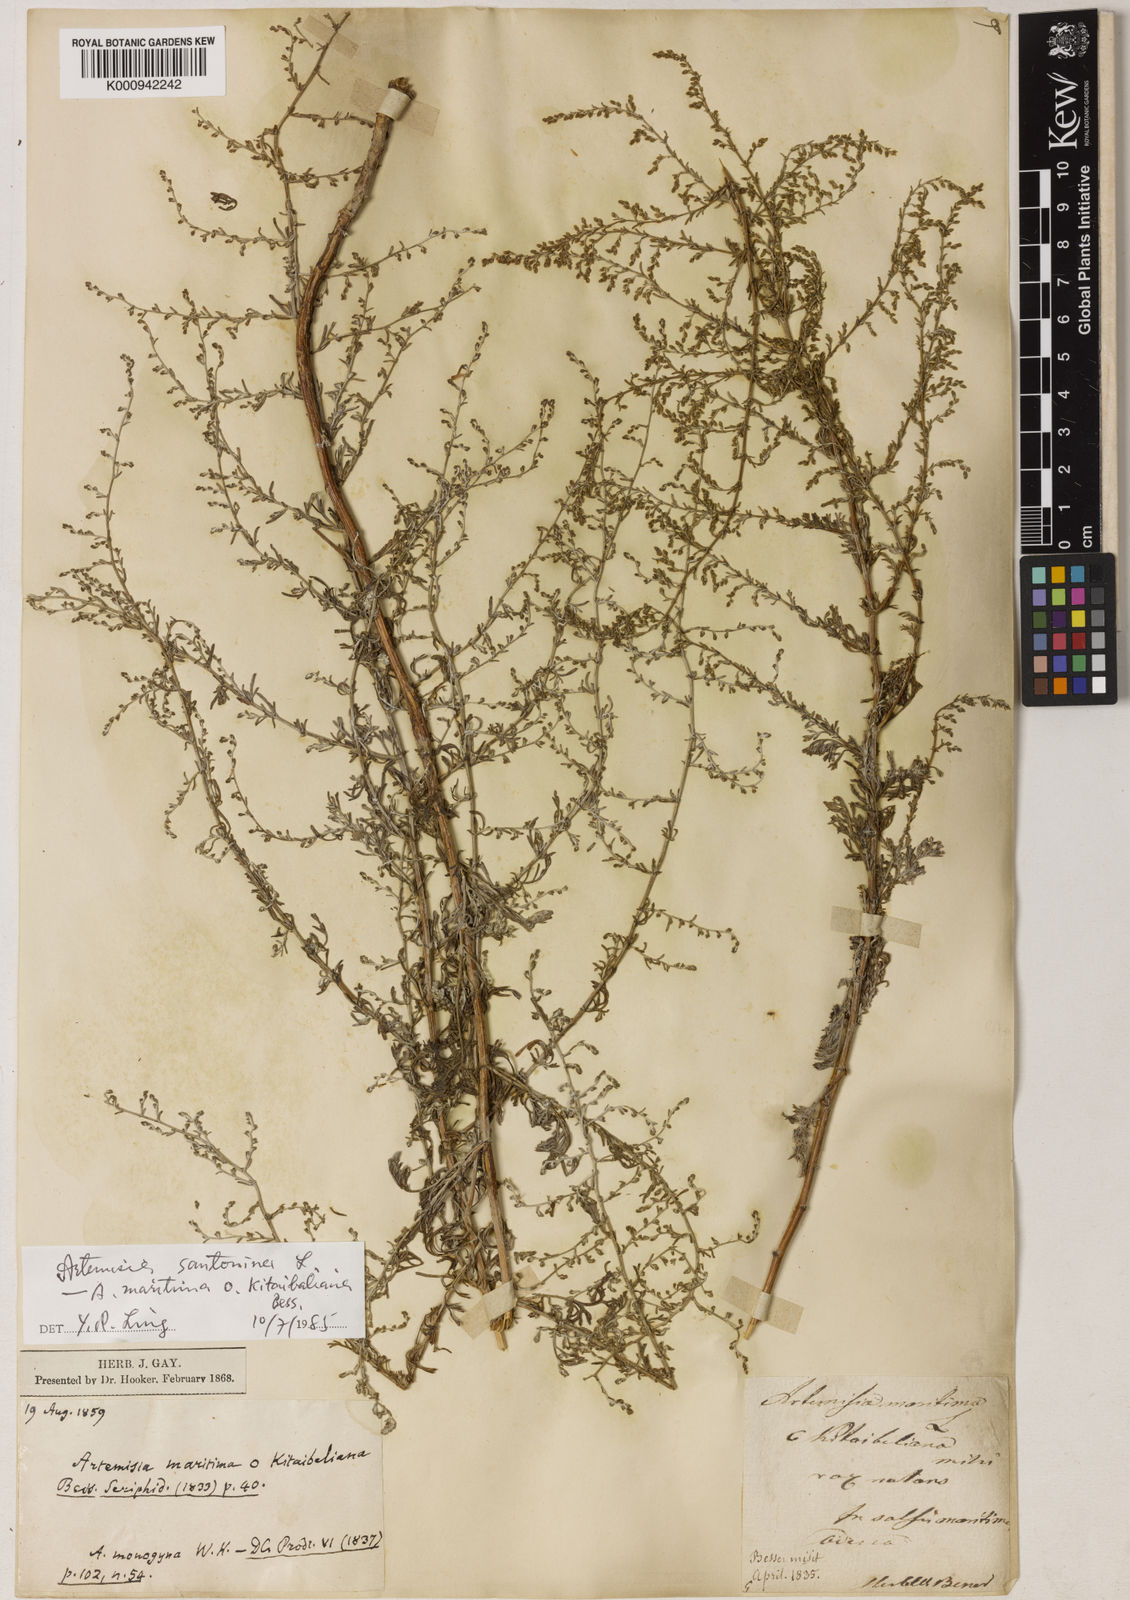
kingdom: Plantae
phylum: Tracheophyta
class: Magnoliopsida
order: Asterales
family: Asteraceae
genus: Seriphidium
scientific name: Seriphidium
